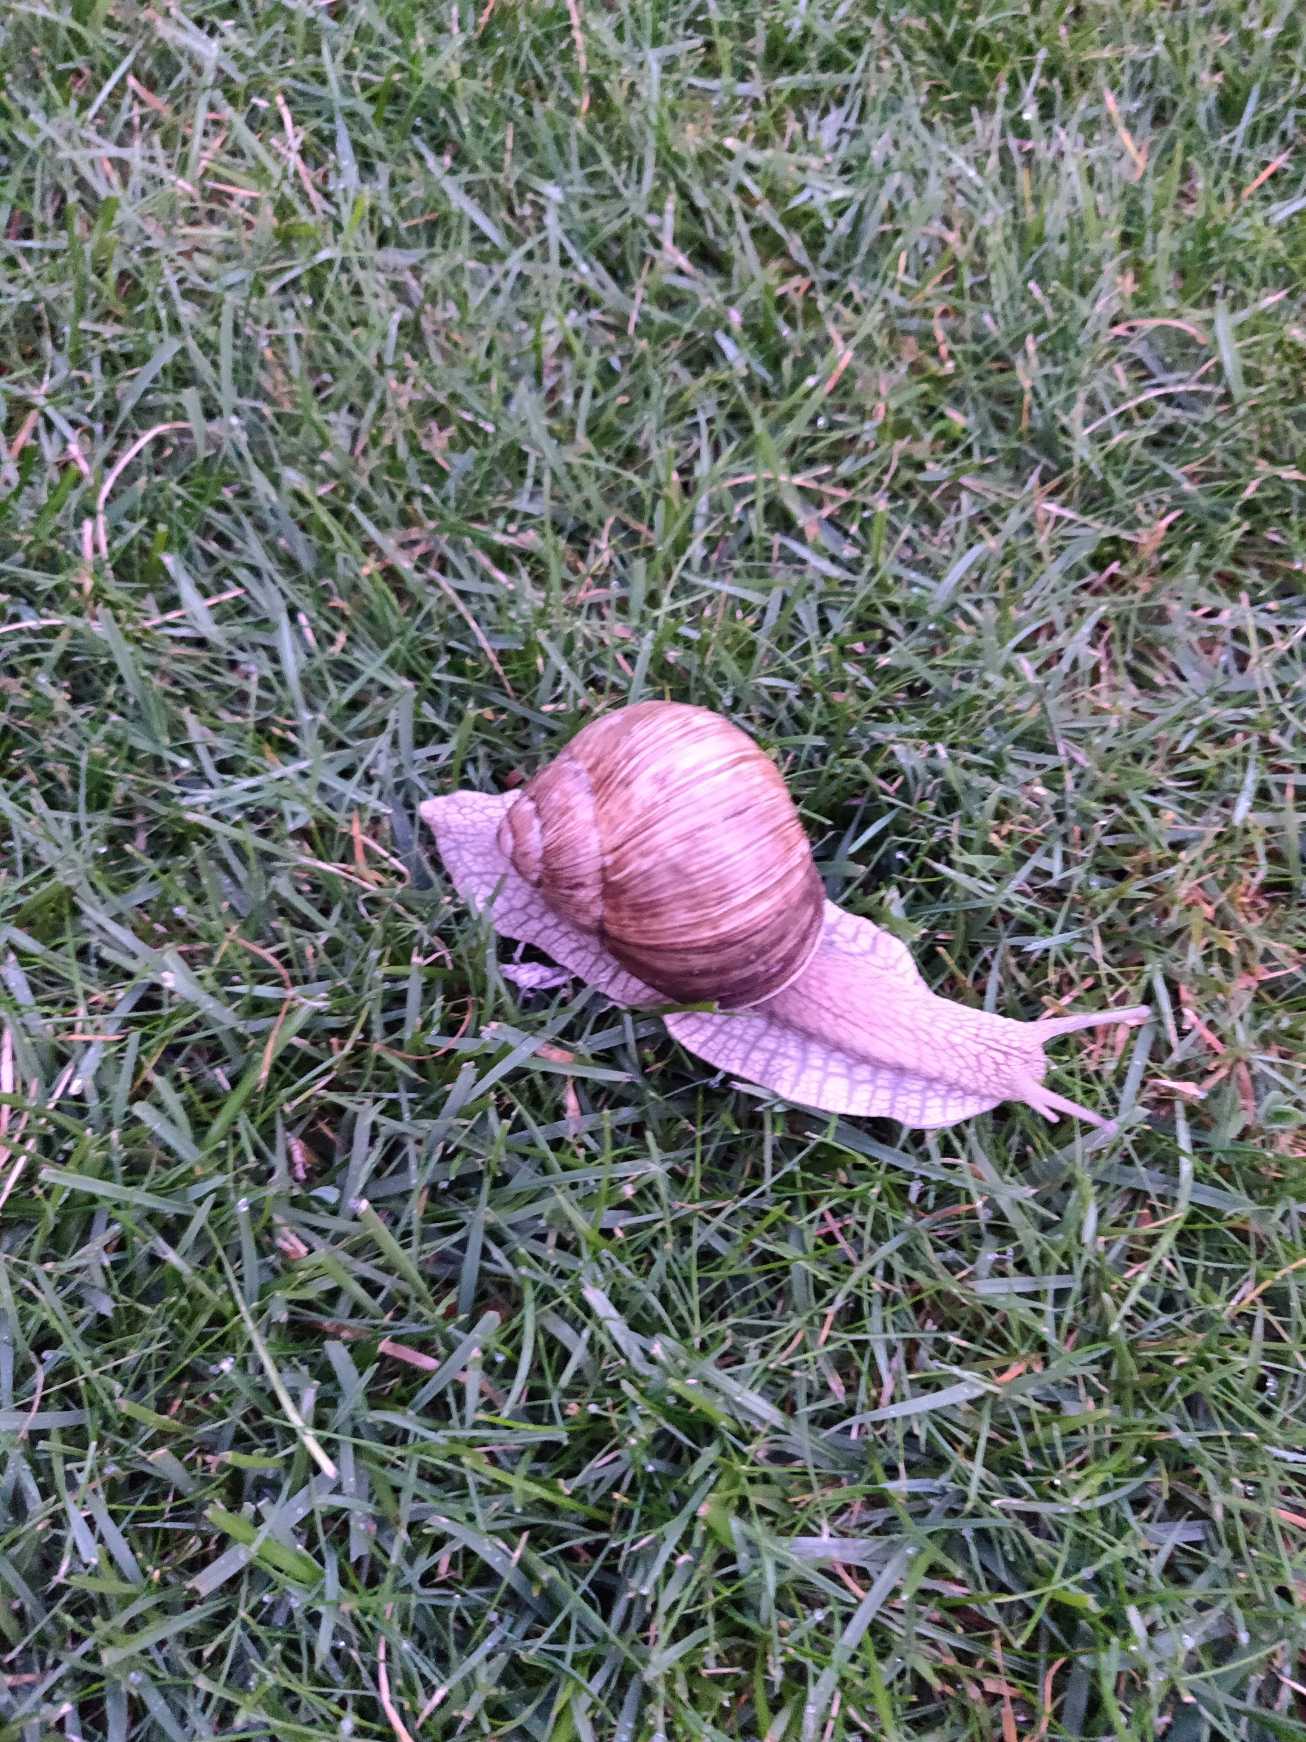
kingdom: Animalia
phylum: Mollusca
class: Gastropoda
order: Stylommatophora
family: Helicidae
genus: Helix
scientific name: Helix pomatia
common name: Vinbjergsnegl
